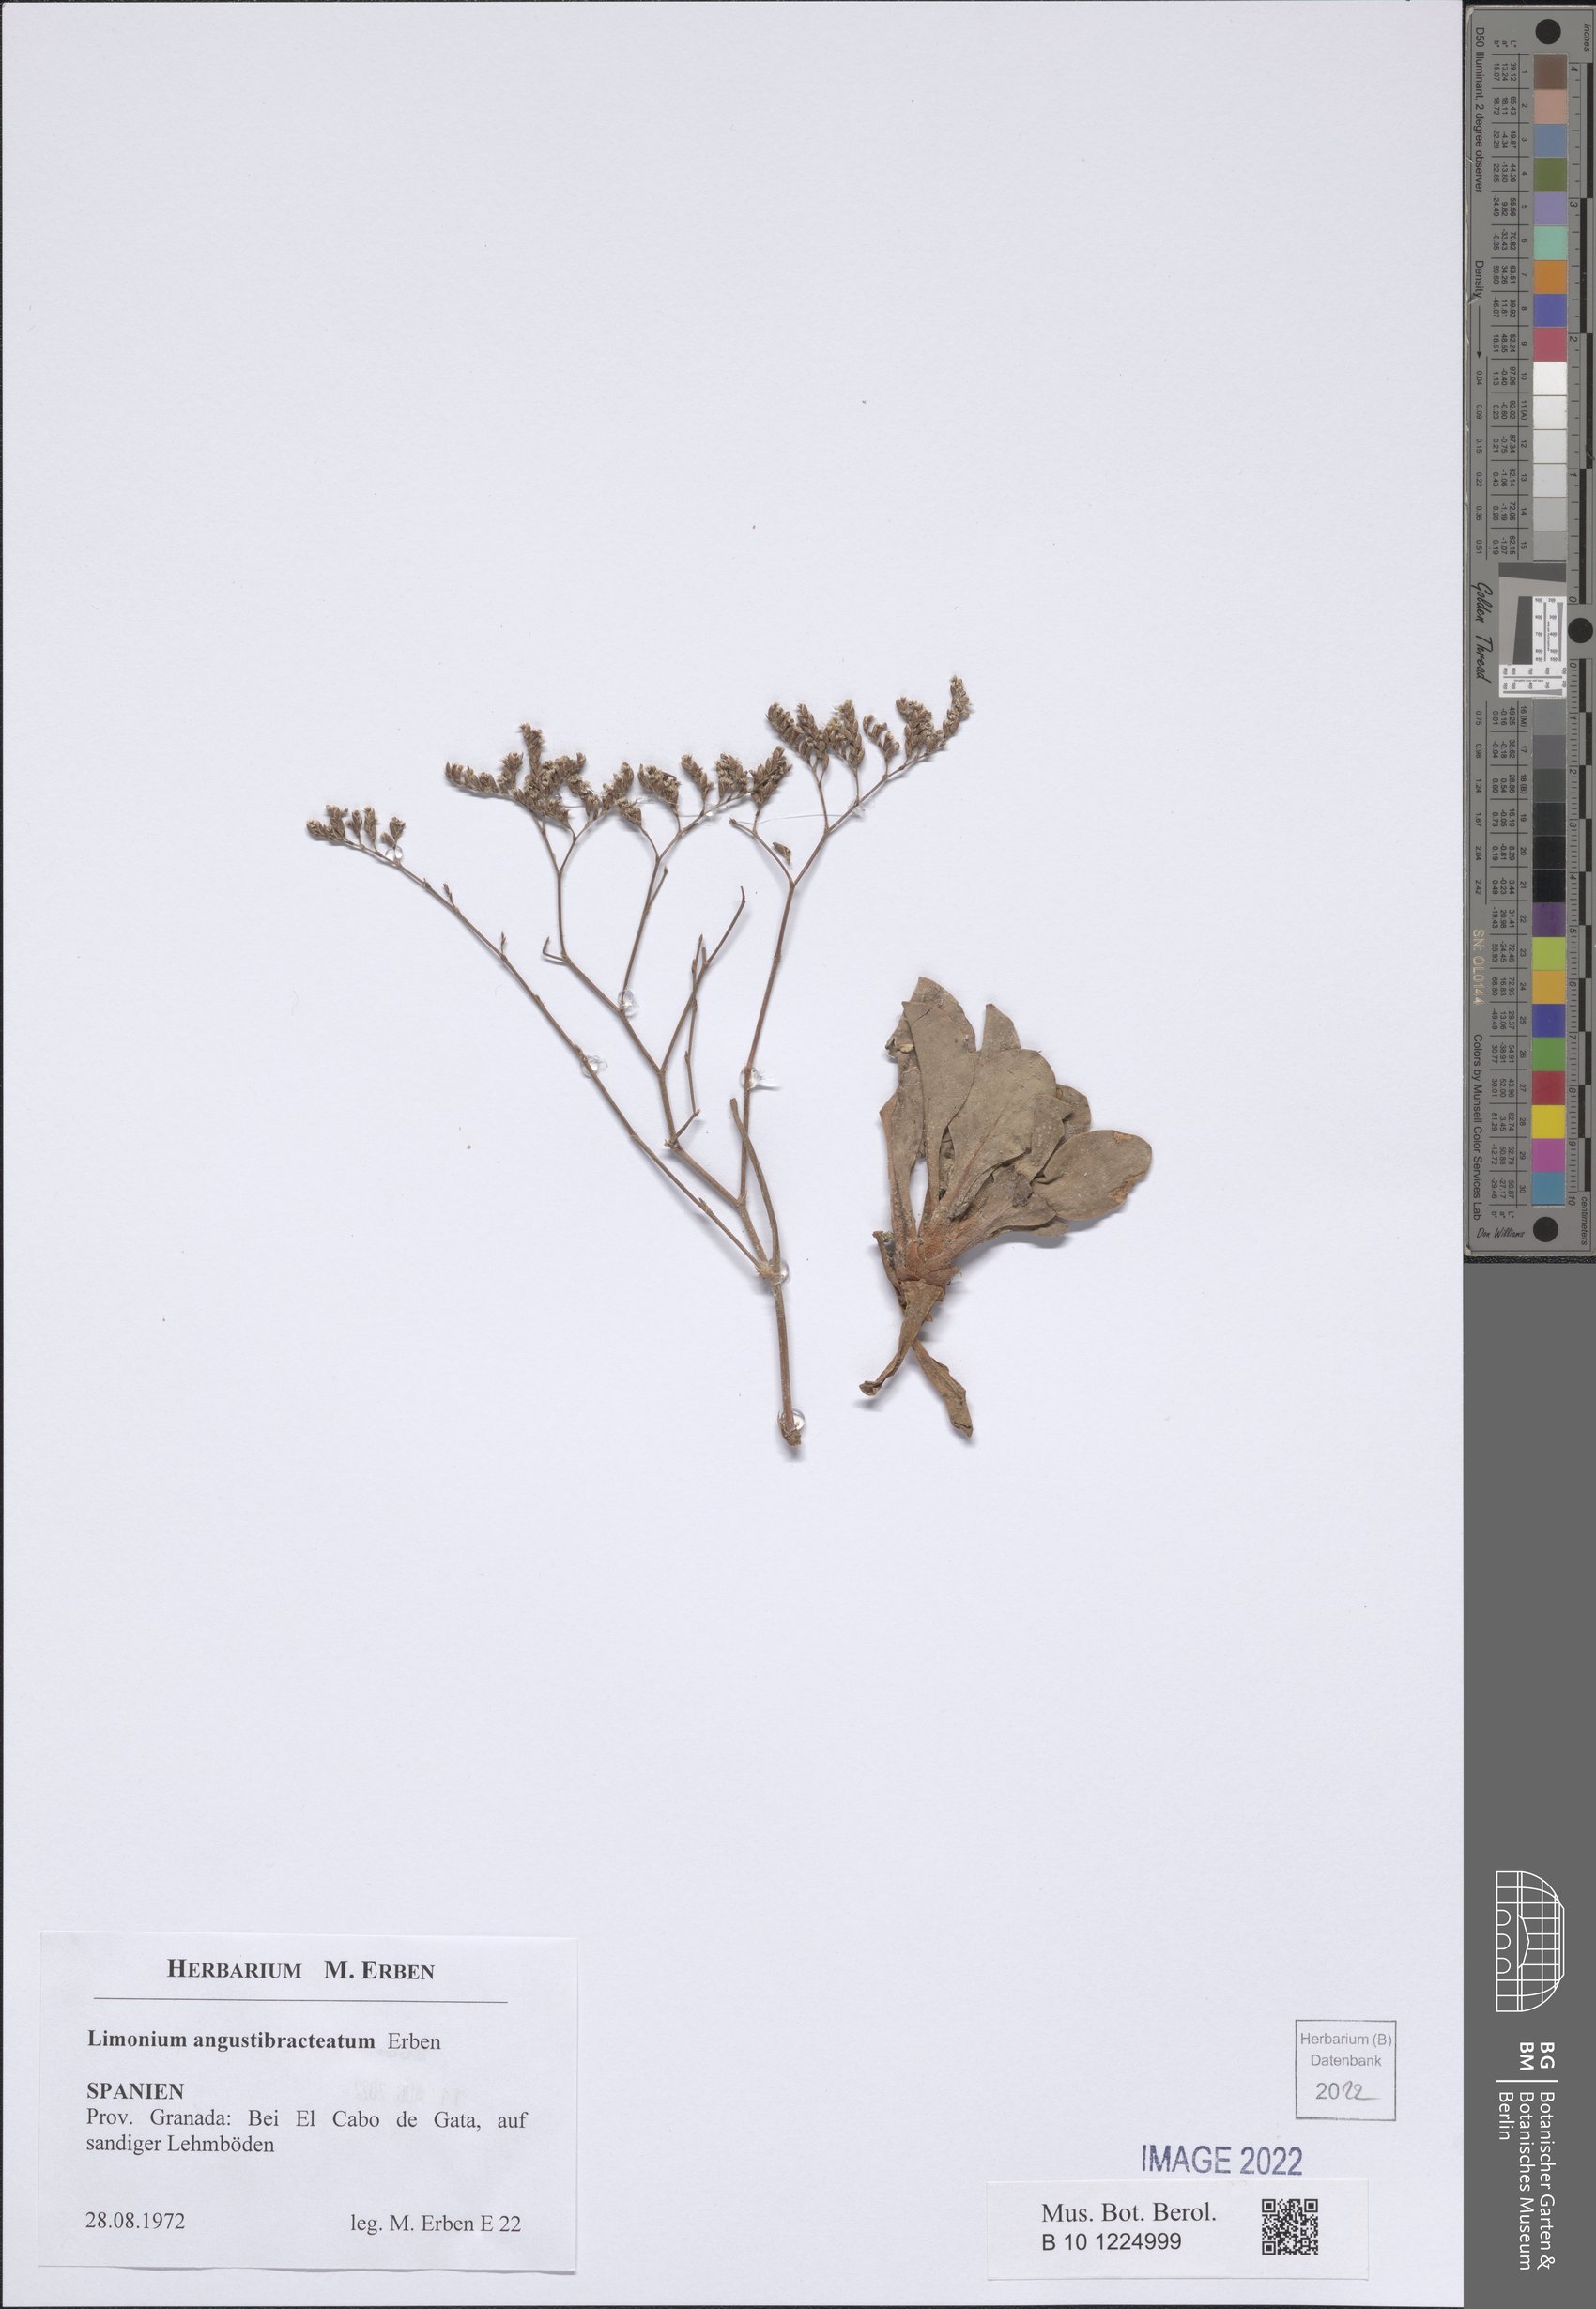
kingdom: Plantae
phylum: Tracheophyta
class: Magnoliopsida
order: Caryophyllales
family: Plumbaginaceae
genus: Limonium
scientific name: Limonium angustibracteatum
